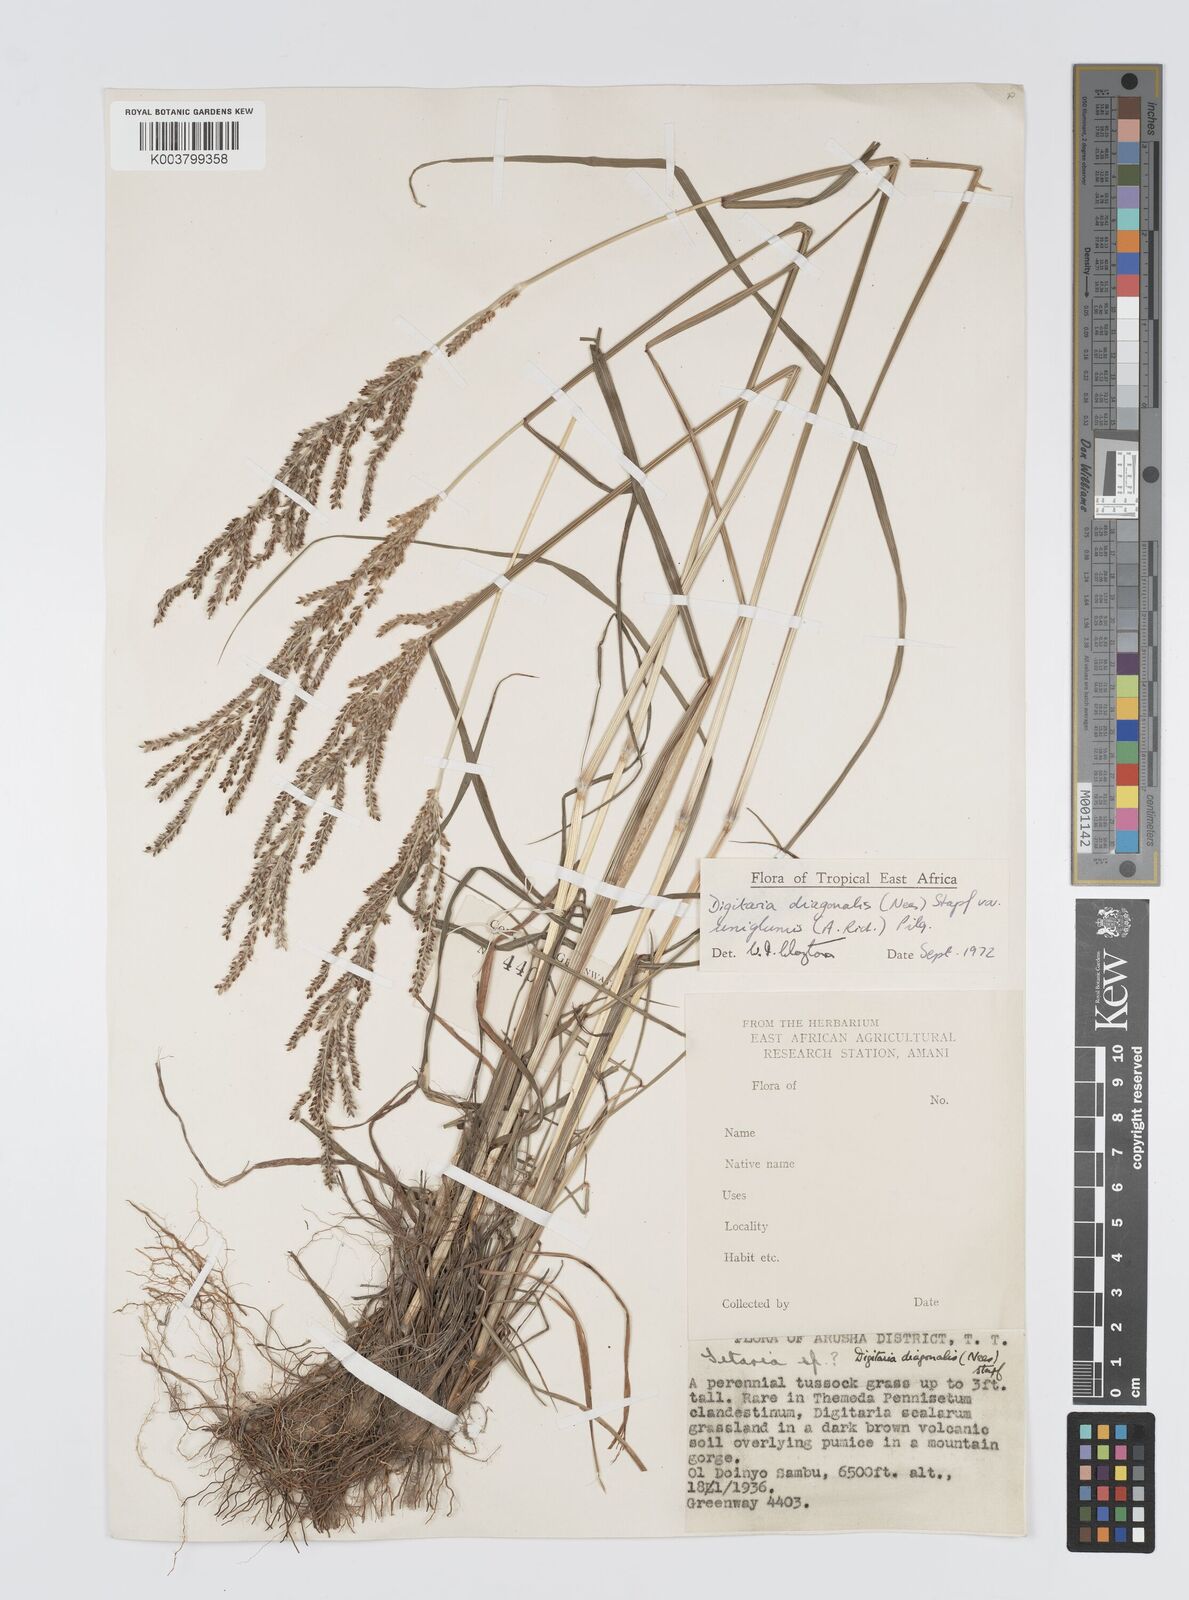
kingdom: Plantae
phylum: Tracheophyta
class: Liliopsida
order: Poales
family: Poaceae
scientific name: Poaceae
